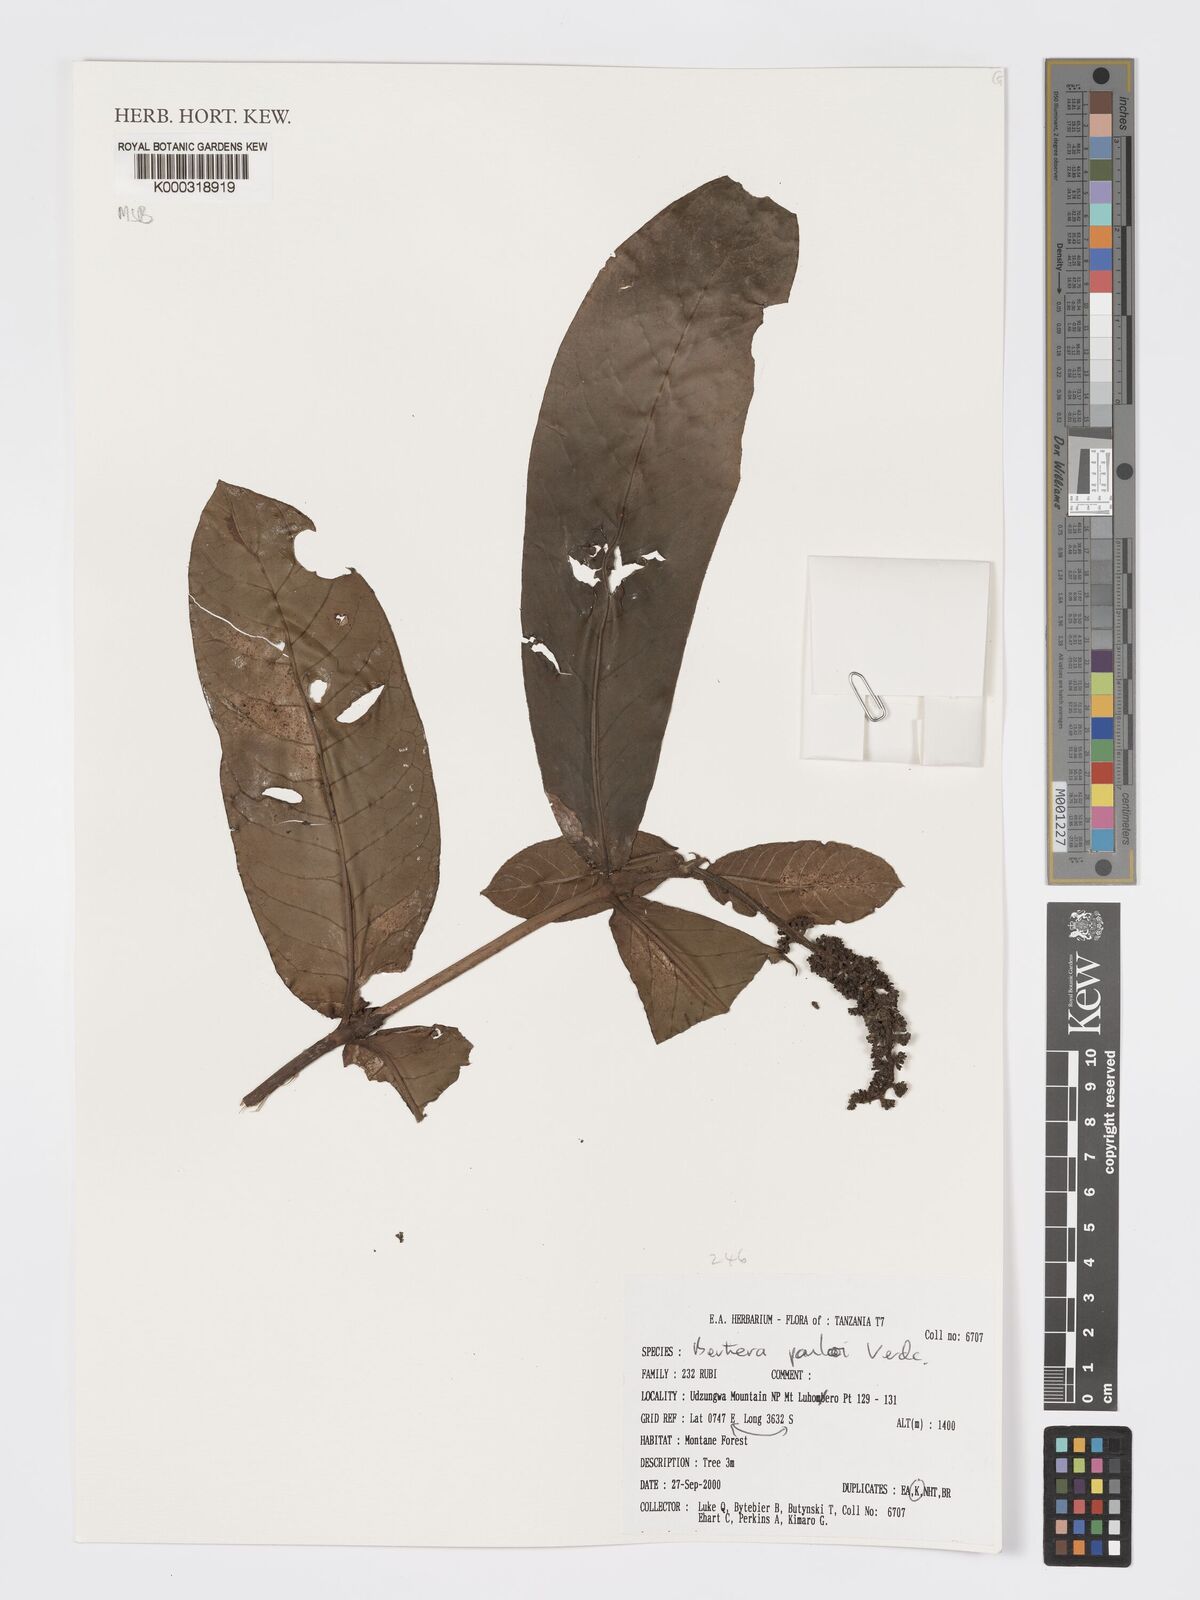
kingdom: Plantae
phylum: Tracheophyta
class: Magnoliopsida
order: Gentianales
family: Rubiaceae
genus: Bertiera
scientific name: Bertiera pauloi
